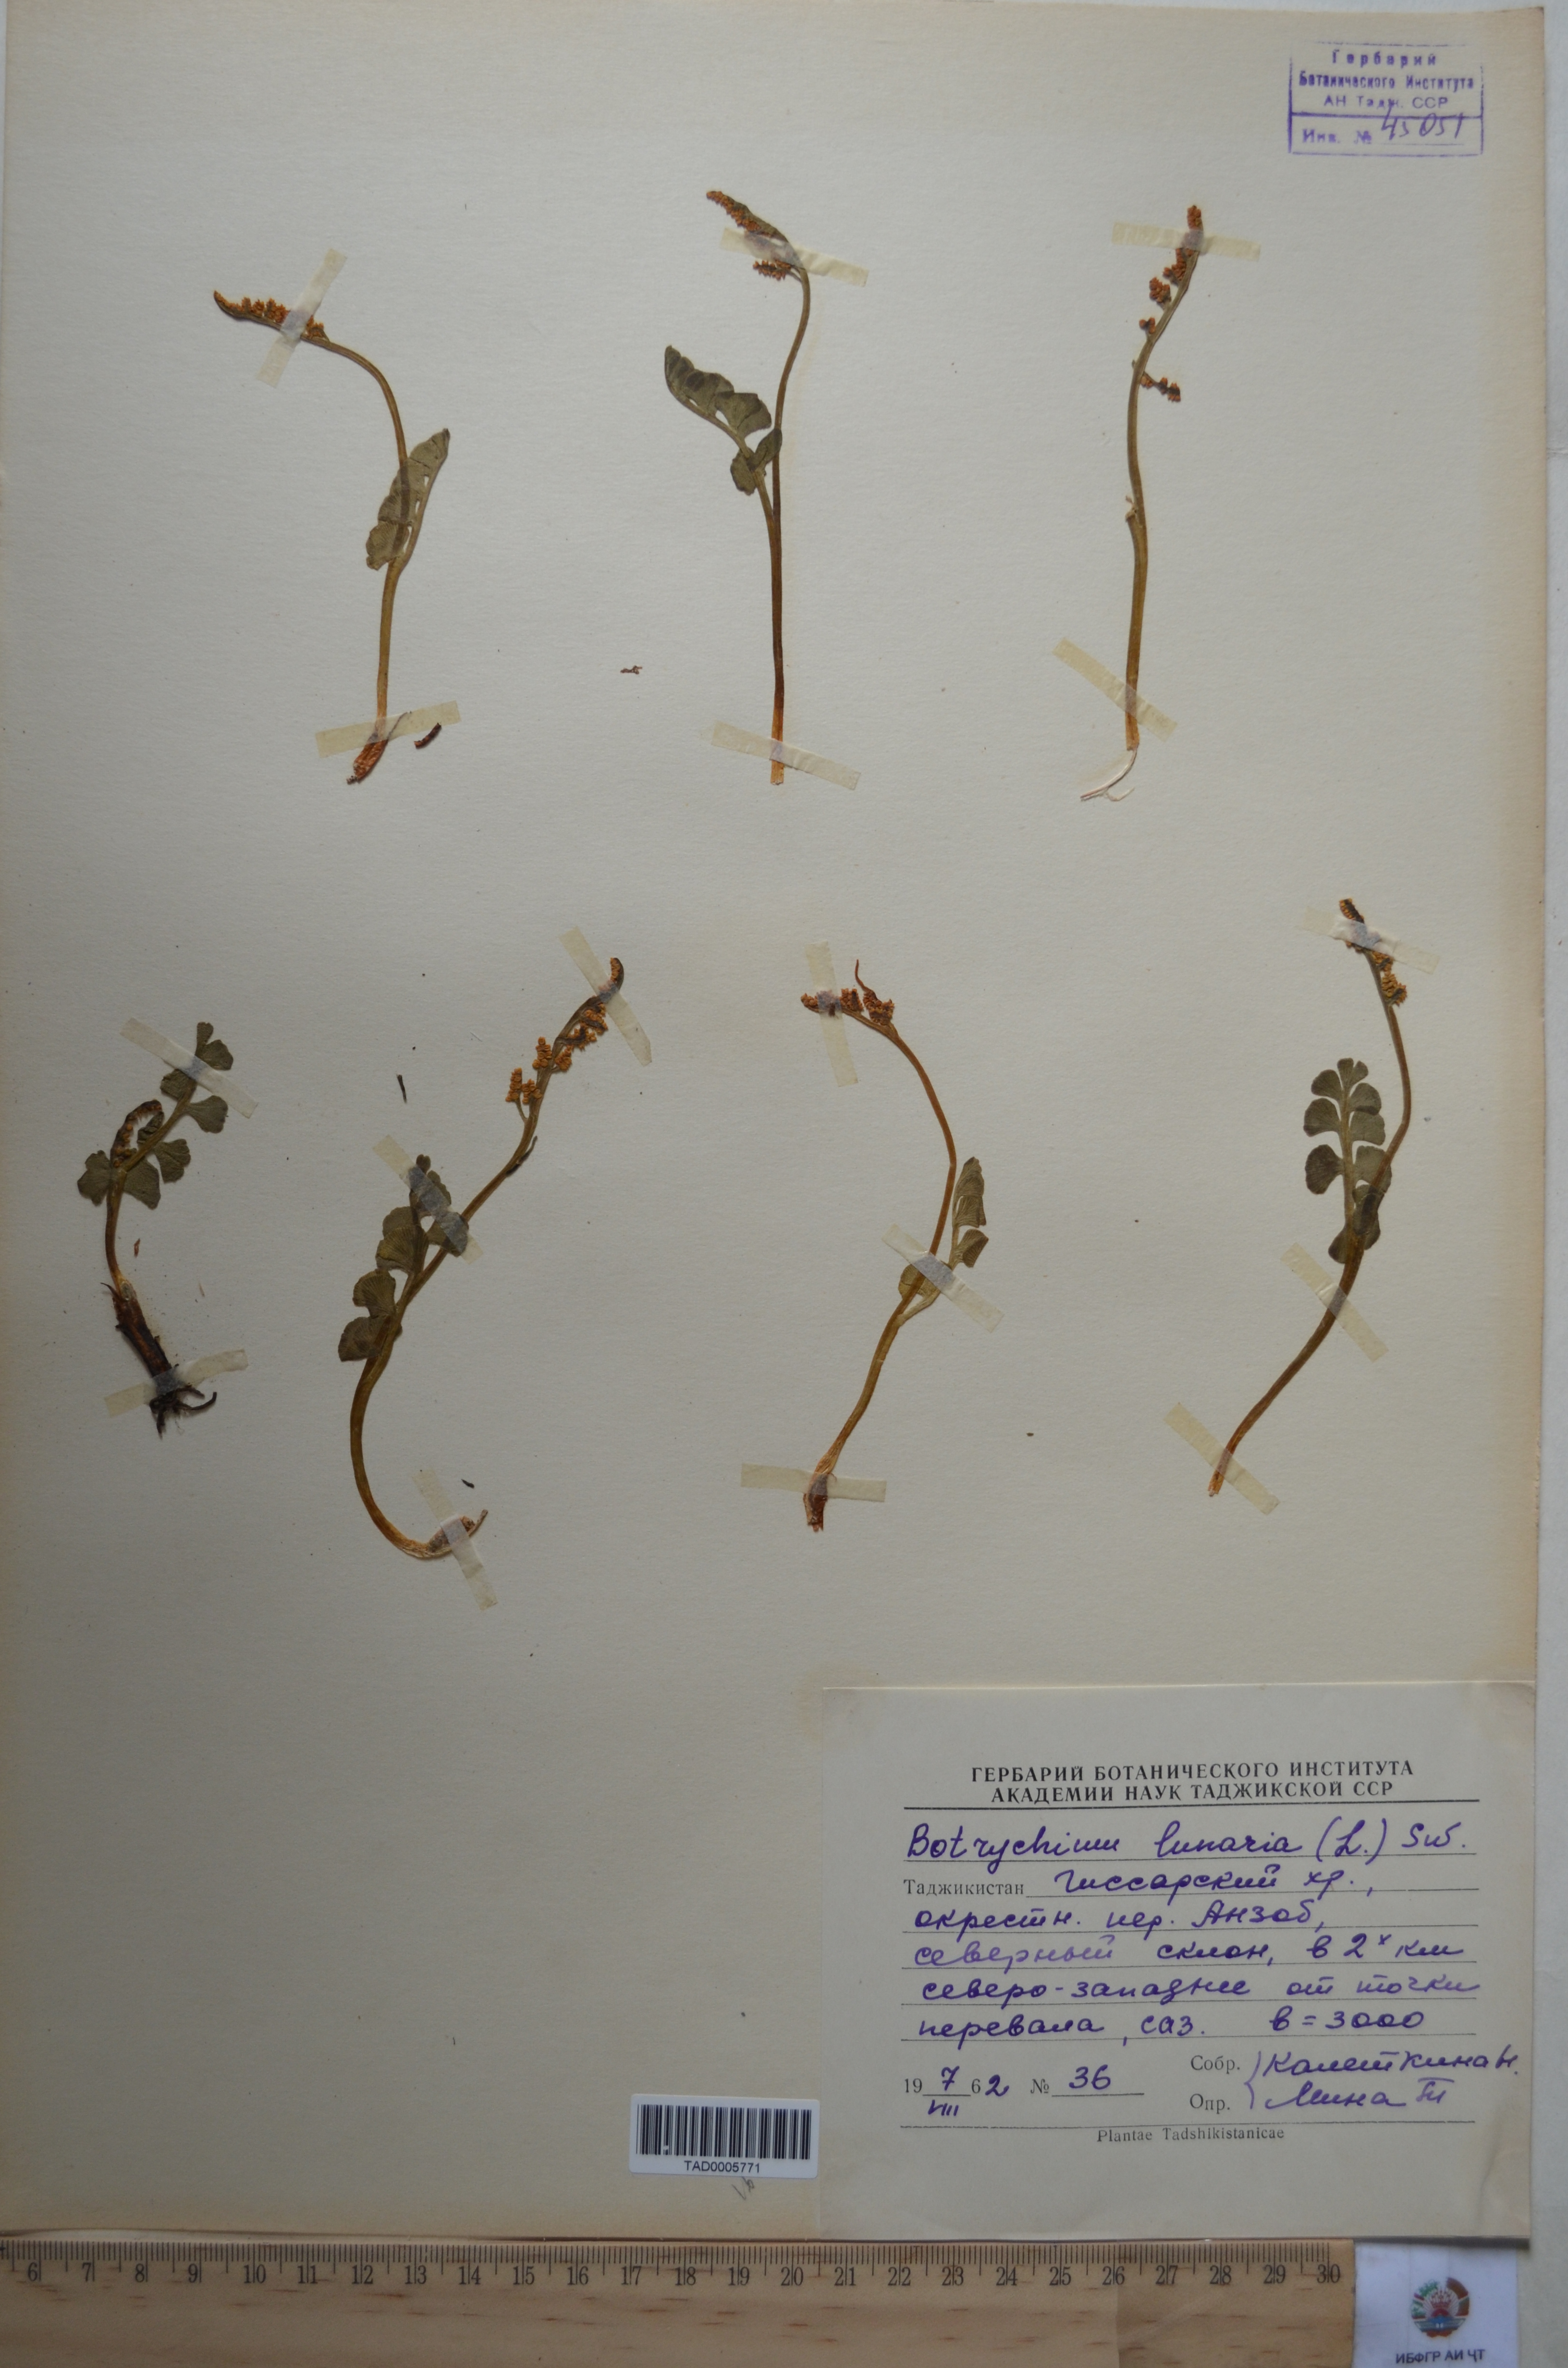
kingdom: Plantae
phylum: Tracheophyta
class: Polypodiopsida
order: Ophioglossales
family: Ophioglossaceae
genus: Botrychium
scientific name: Botrychium lunaria
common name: Moonwort
